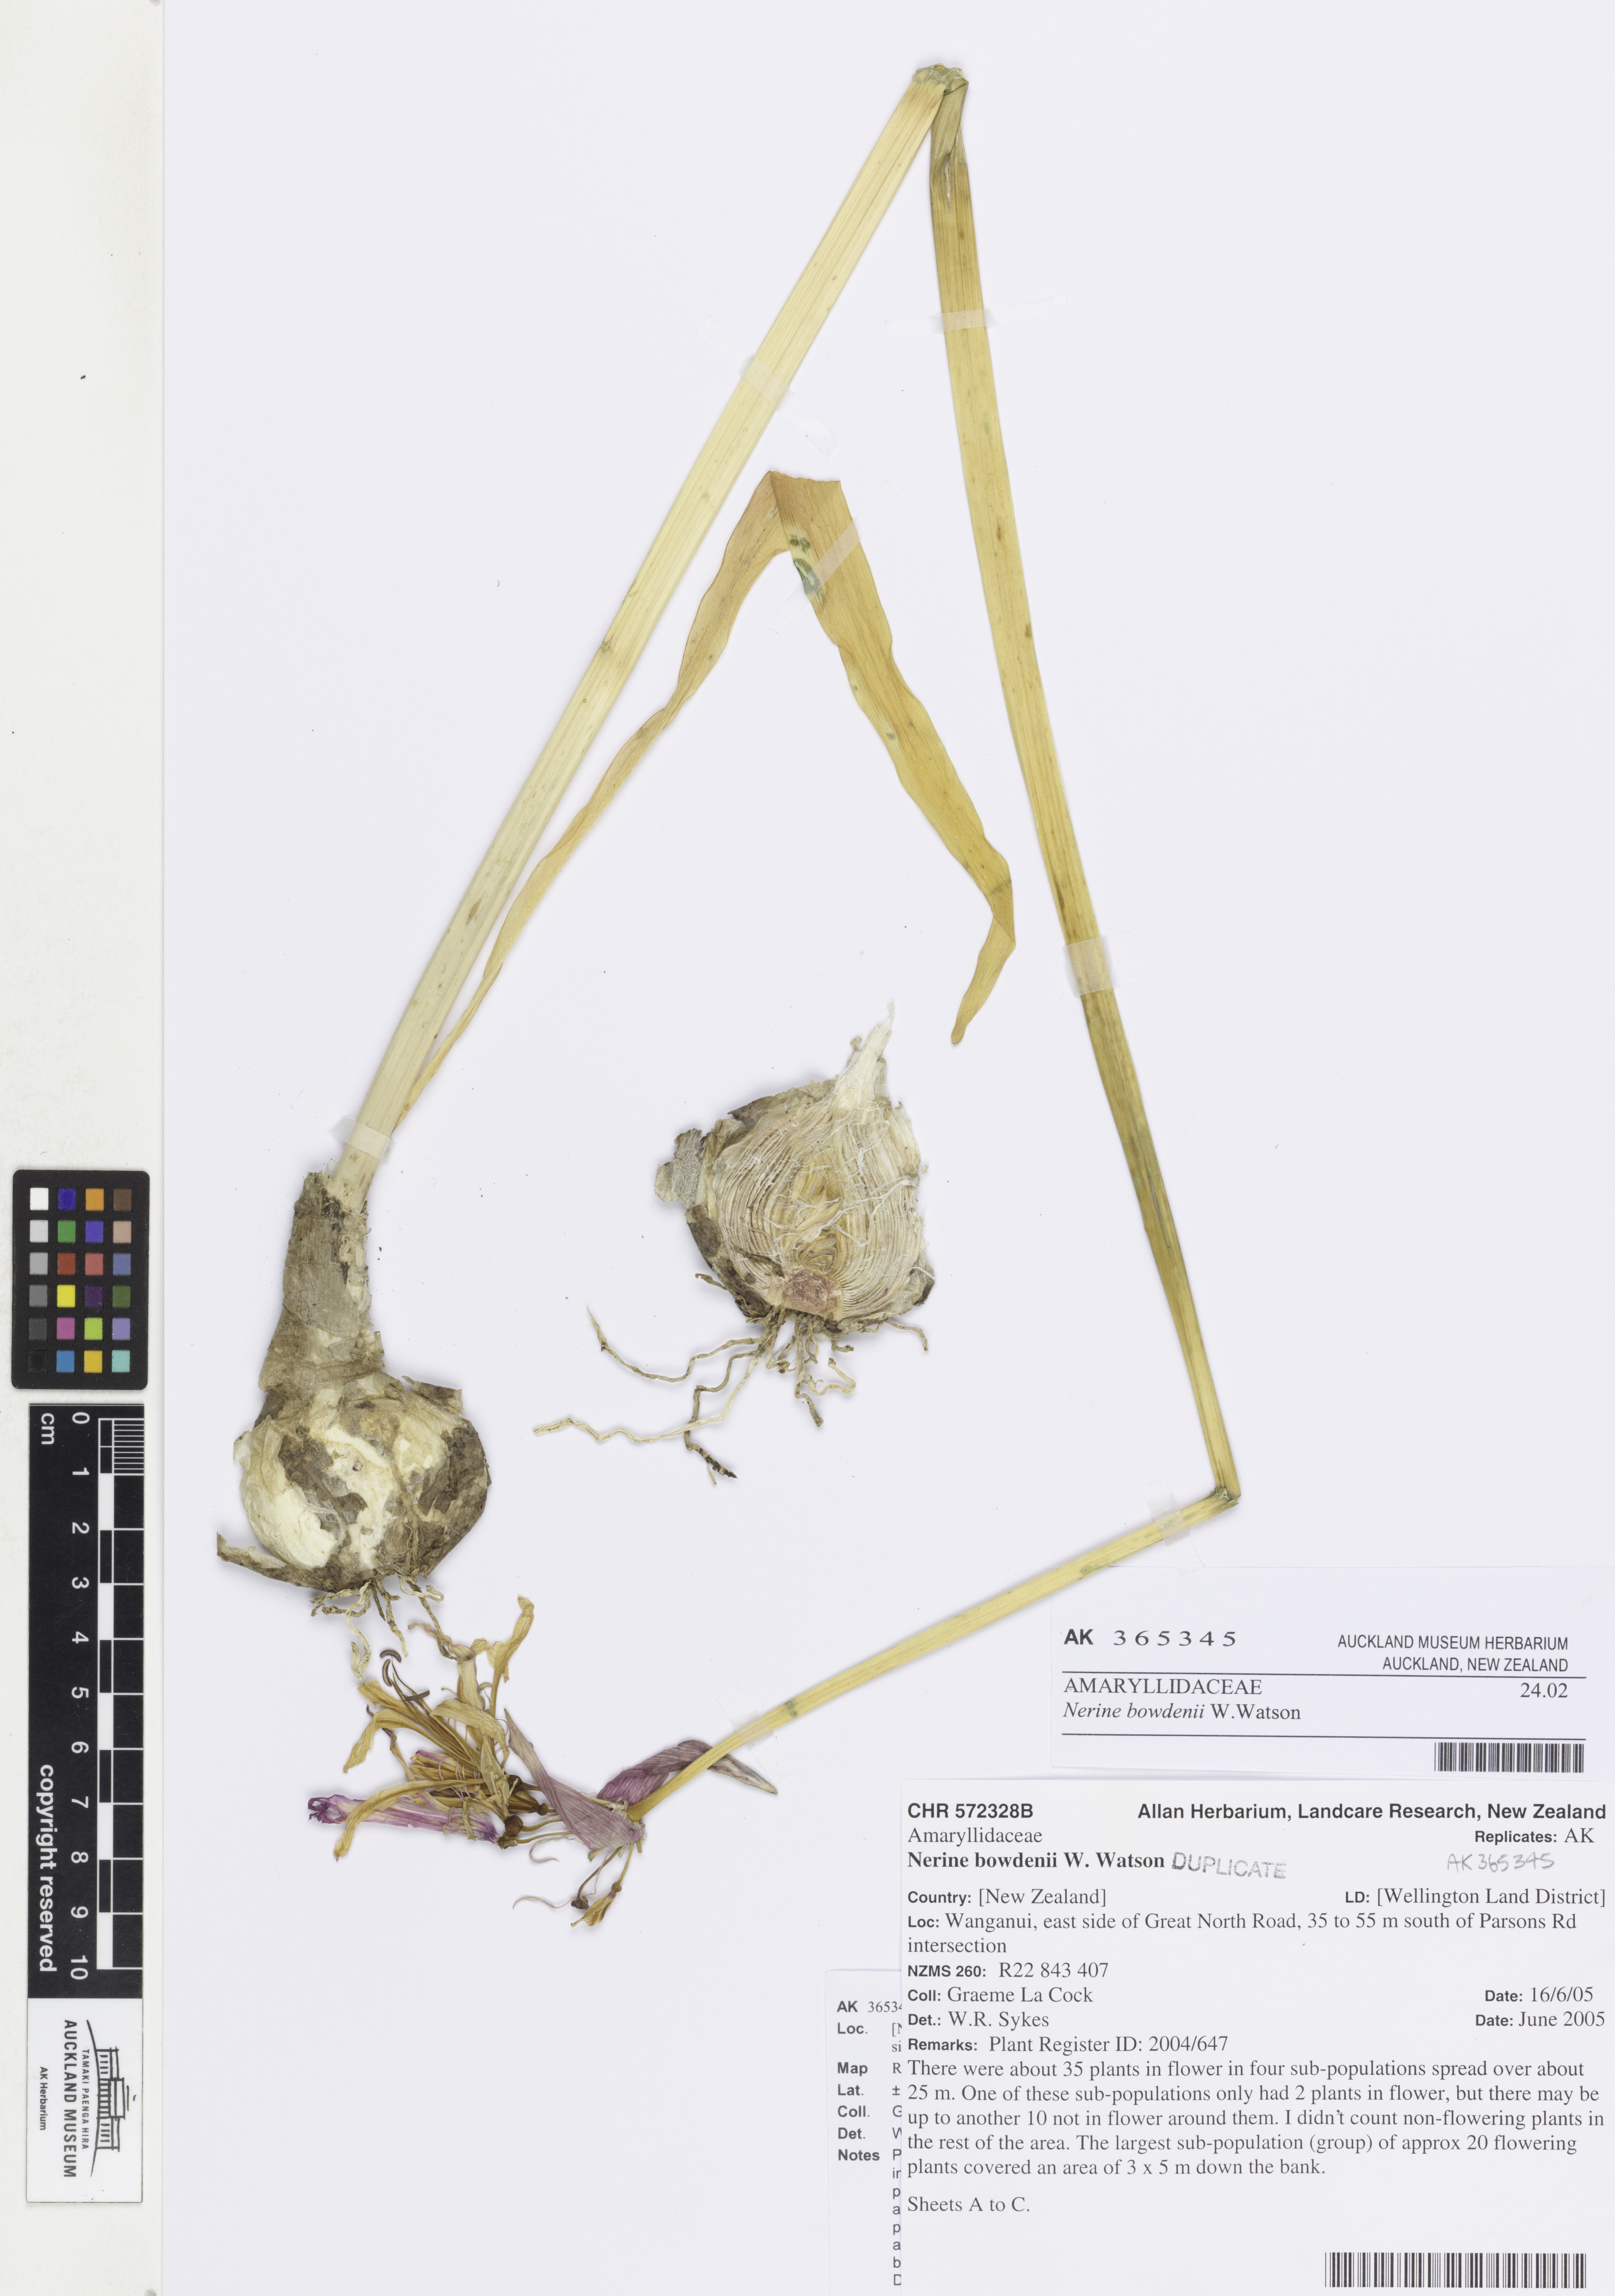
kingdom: Plantae
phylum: Tracheophyta
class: Liliopsida
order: Asparagales
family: Amaryllidaceae
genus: Nerine
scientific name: Nerine bowdenii
